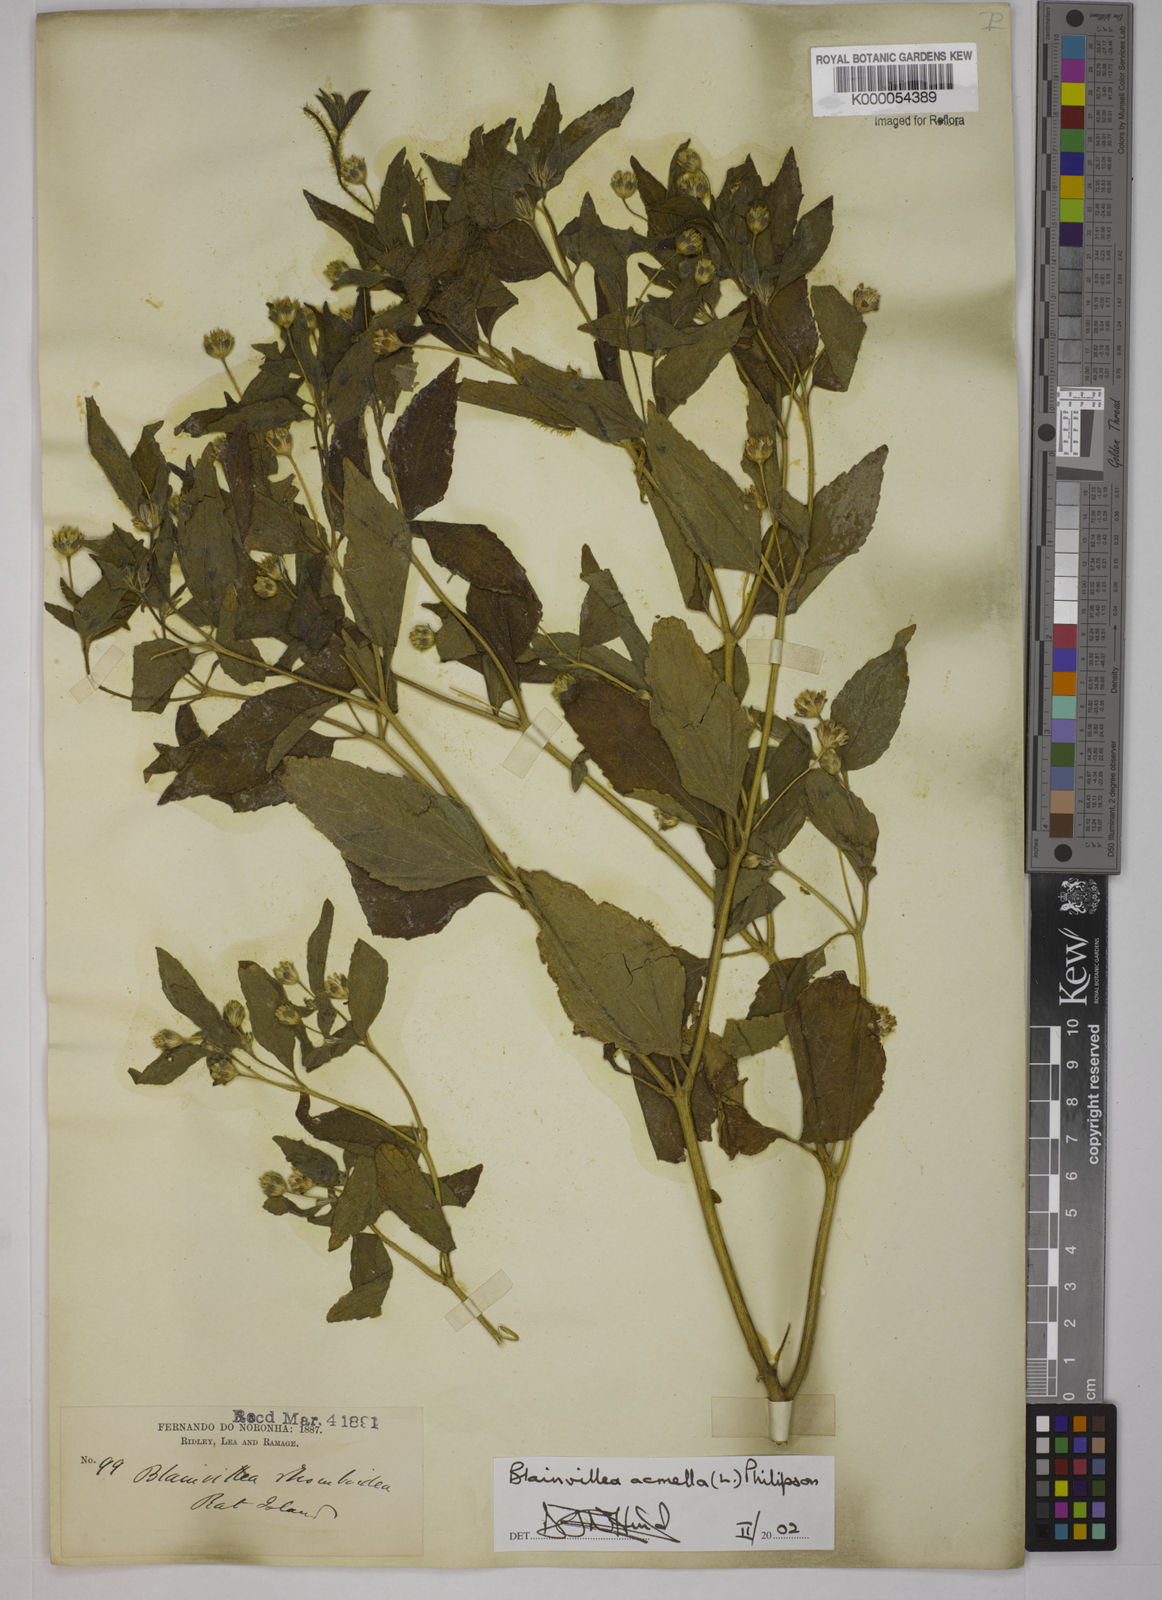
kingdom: Plantae
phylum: Tracheophyta
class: Magnoliopsida
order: Asterales
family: Asteraceae
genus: Blainvillea
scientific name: Blainvillea acmella
